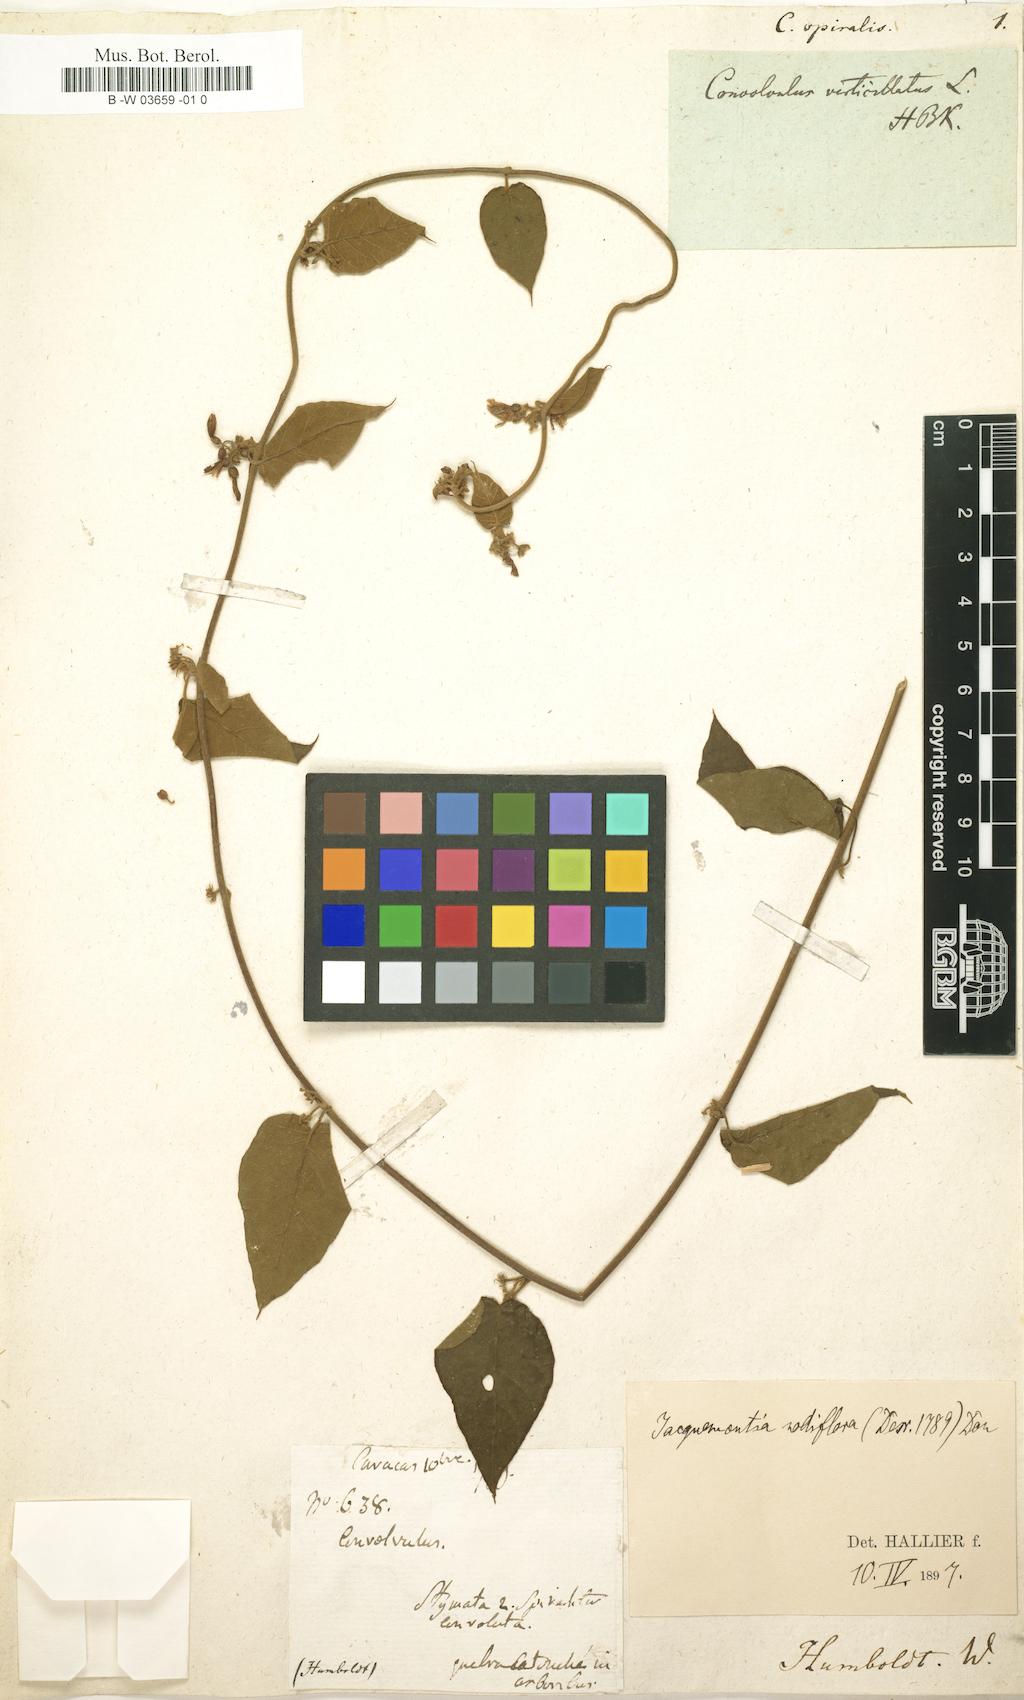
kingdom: Plantae
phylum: Tracheophyta
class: Magnoliopsida
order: Solanales
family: Convolvulaceae
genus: Jacquemontia
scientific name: Jacquemontia nodiflora
